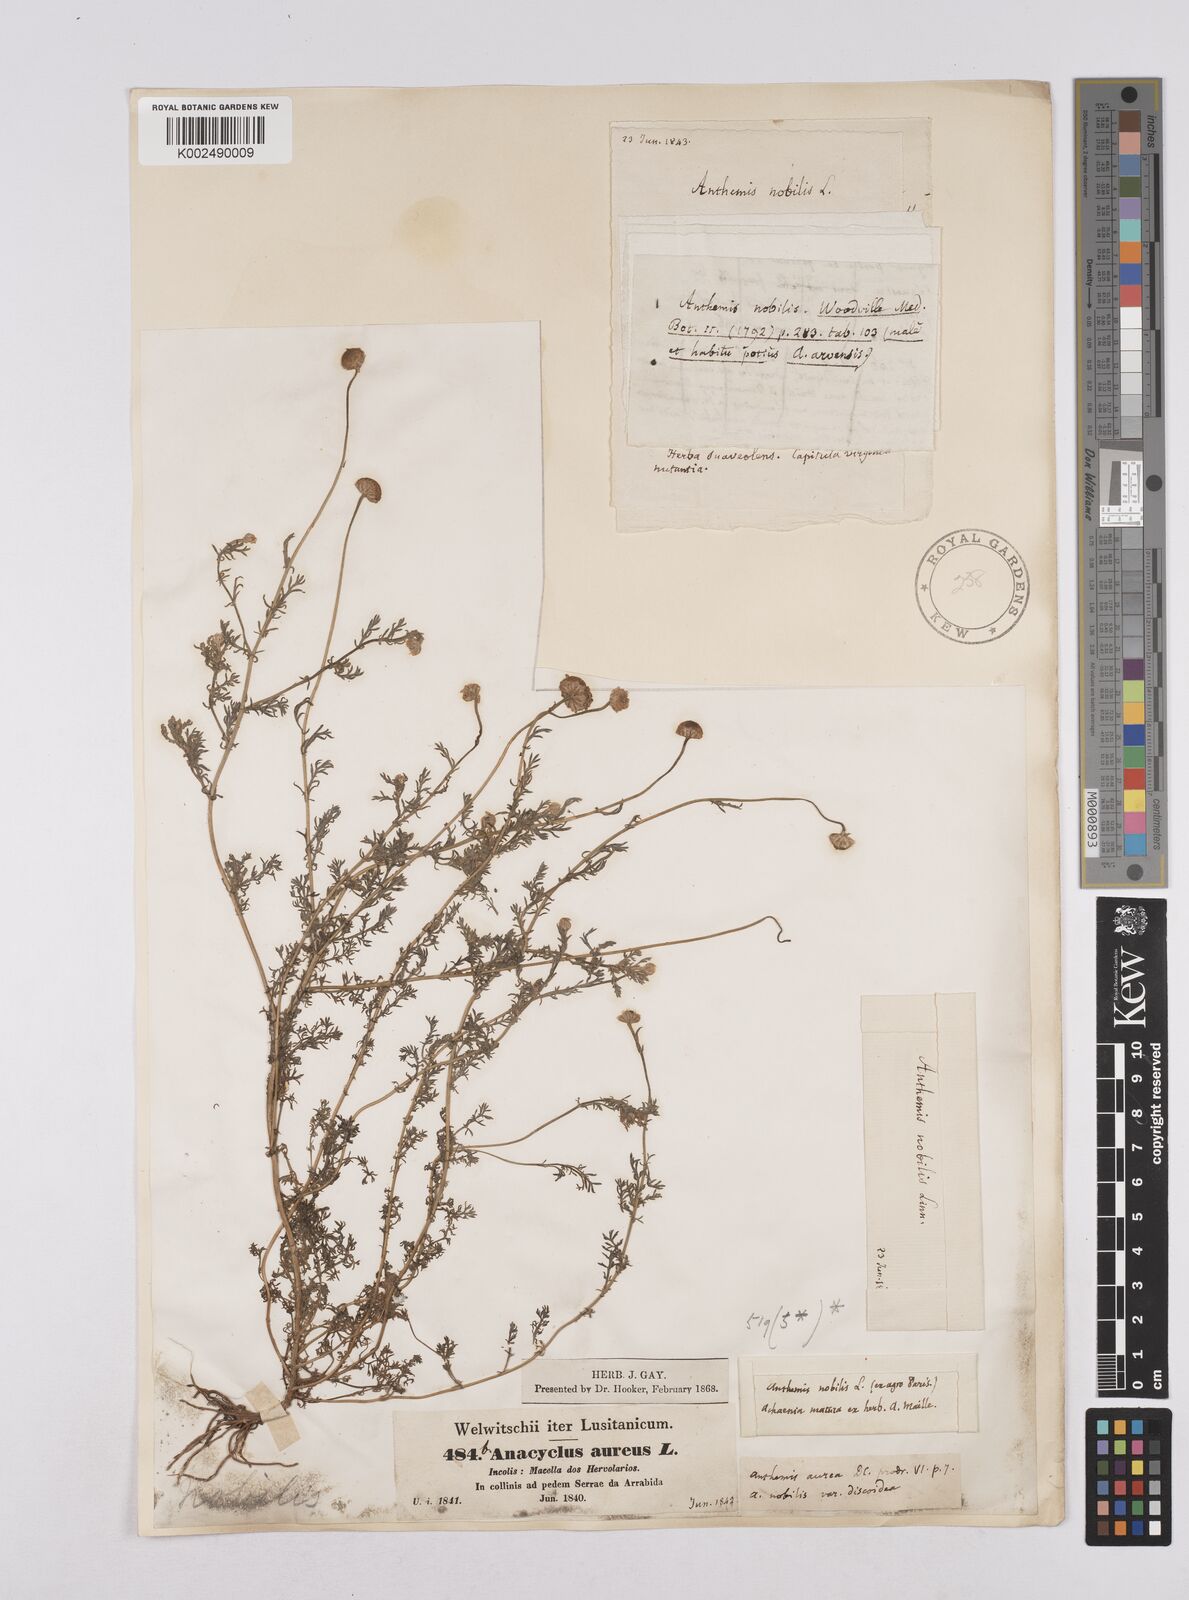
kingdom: Plantae
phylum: Tracheophyta
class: Magnoliopsida
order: Asterales
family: Asteraceae
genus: Matricaria
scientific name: Matricaria aurea
